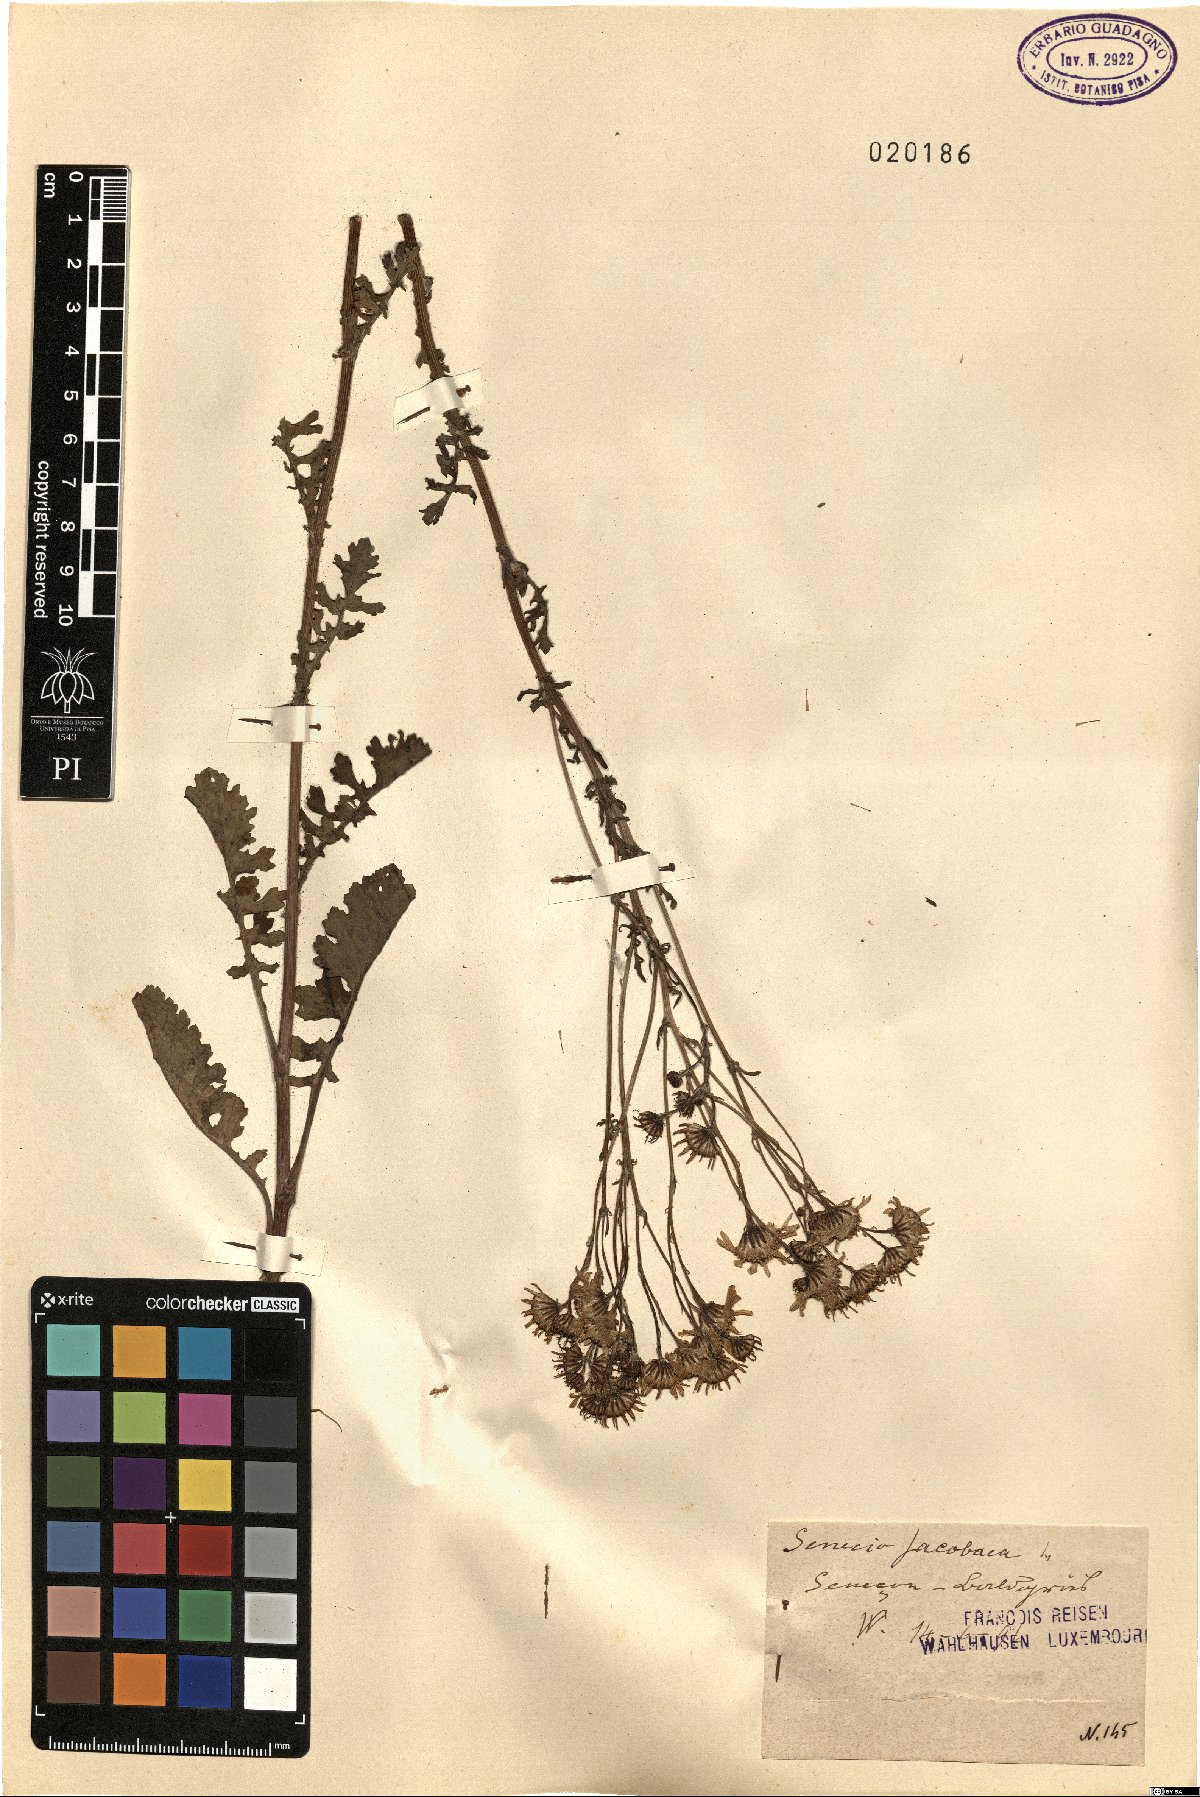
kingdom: Plantae
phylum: Tracheophyta
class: Magnoliopsida
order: Asterales
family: Asteraceae
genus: Jacobaea
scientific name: Jacobaea vulgaris
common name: Stinking willie
